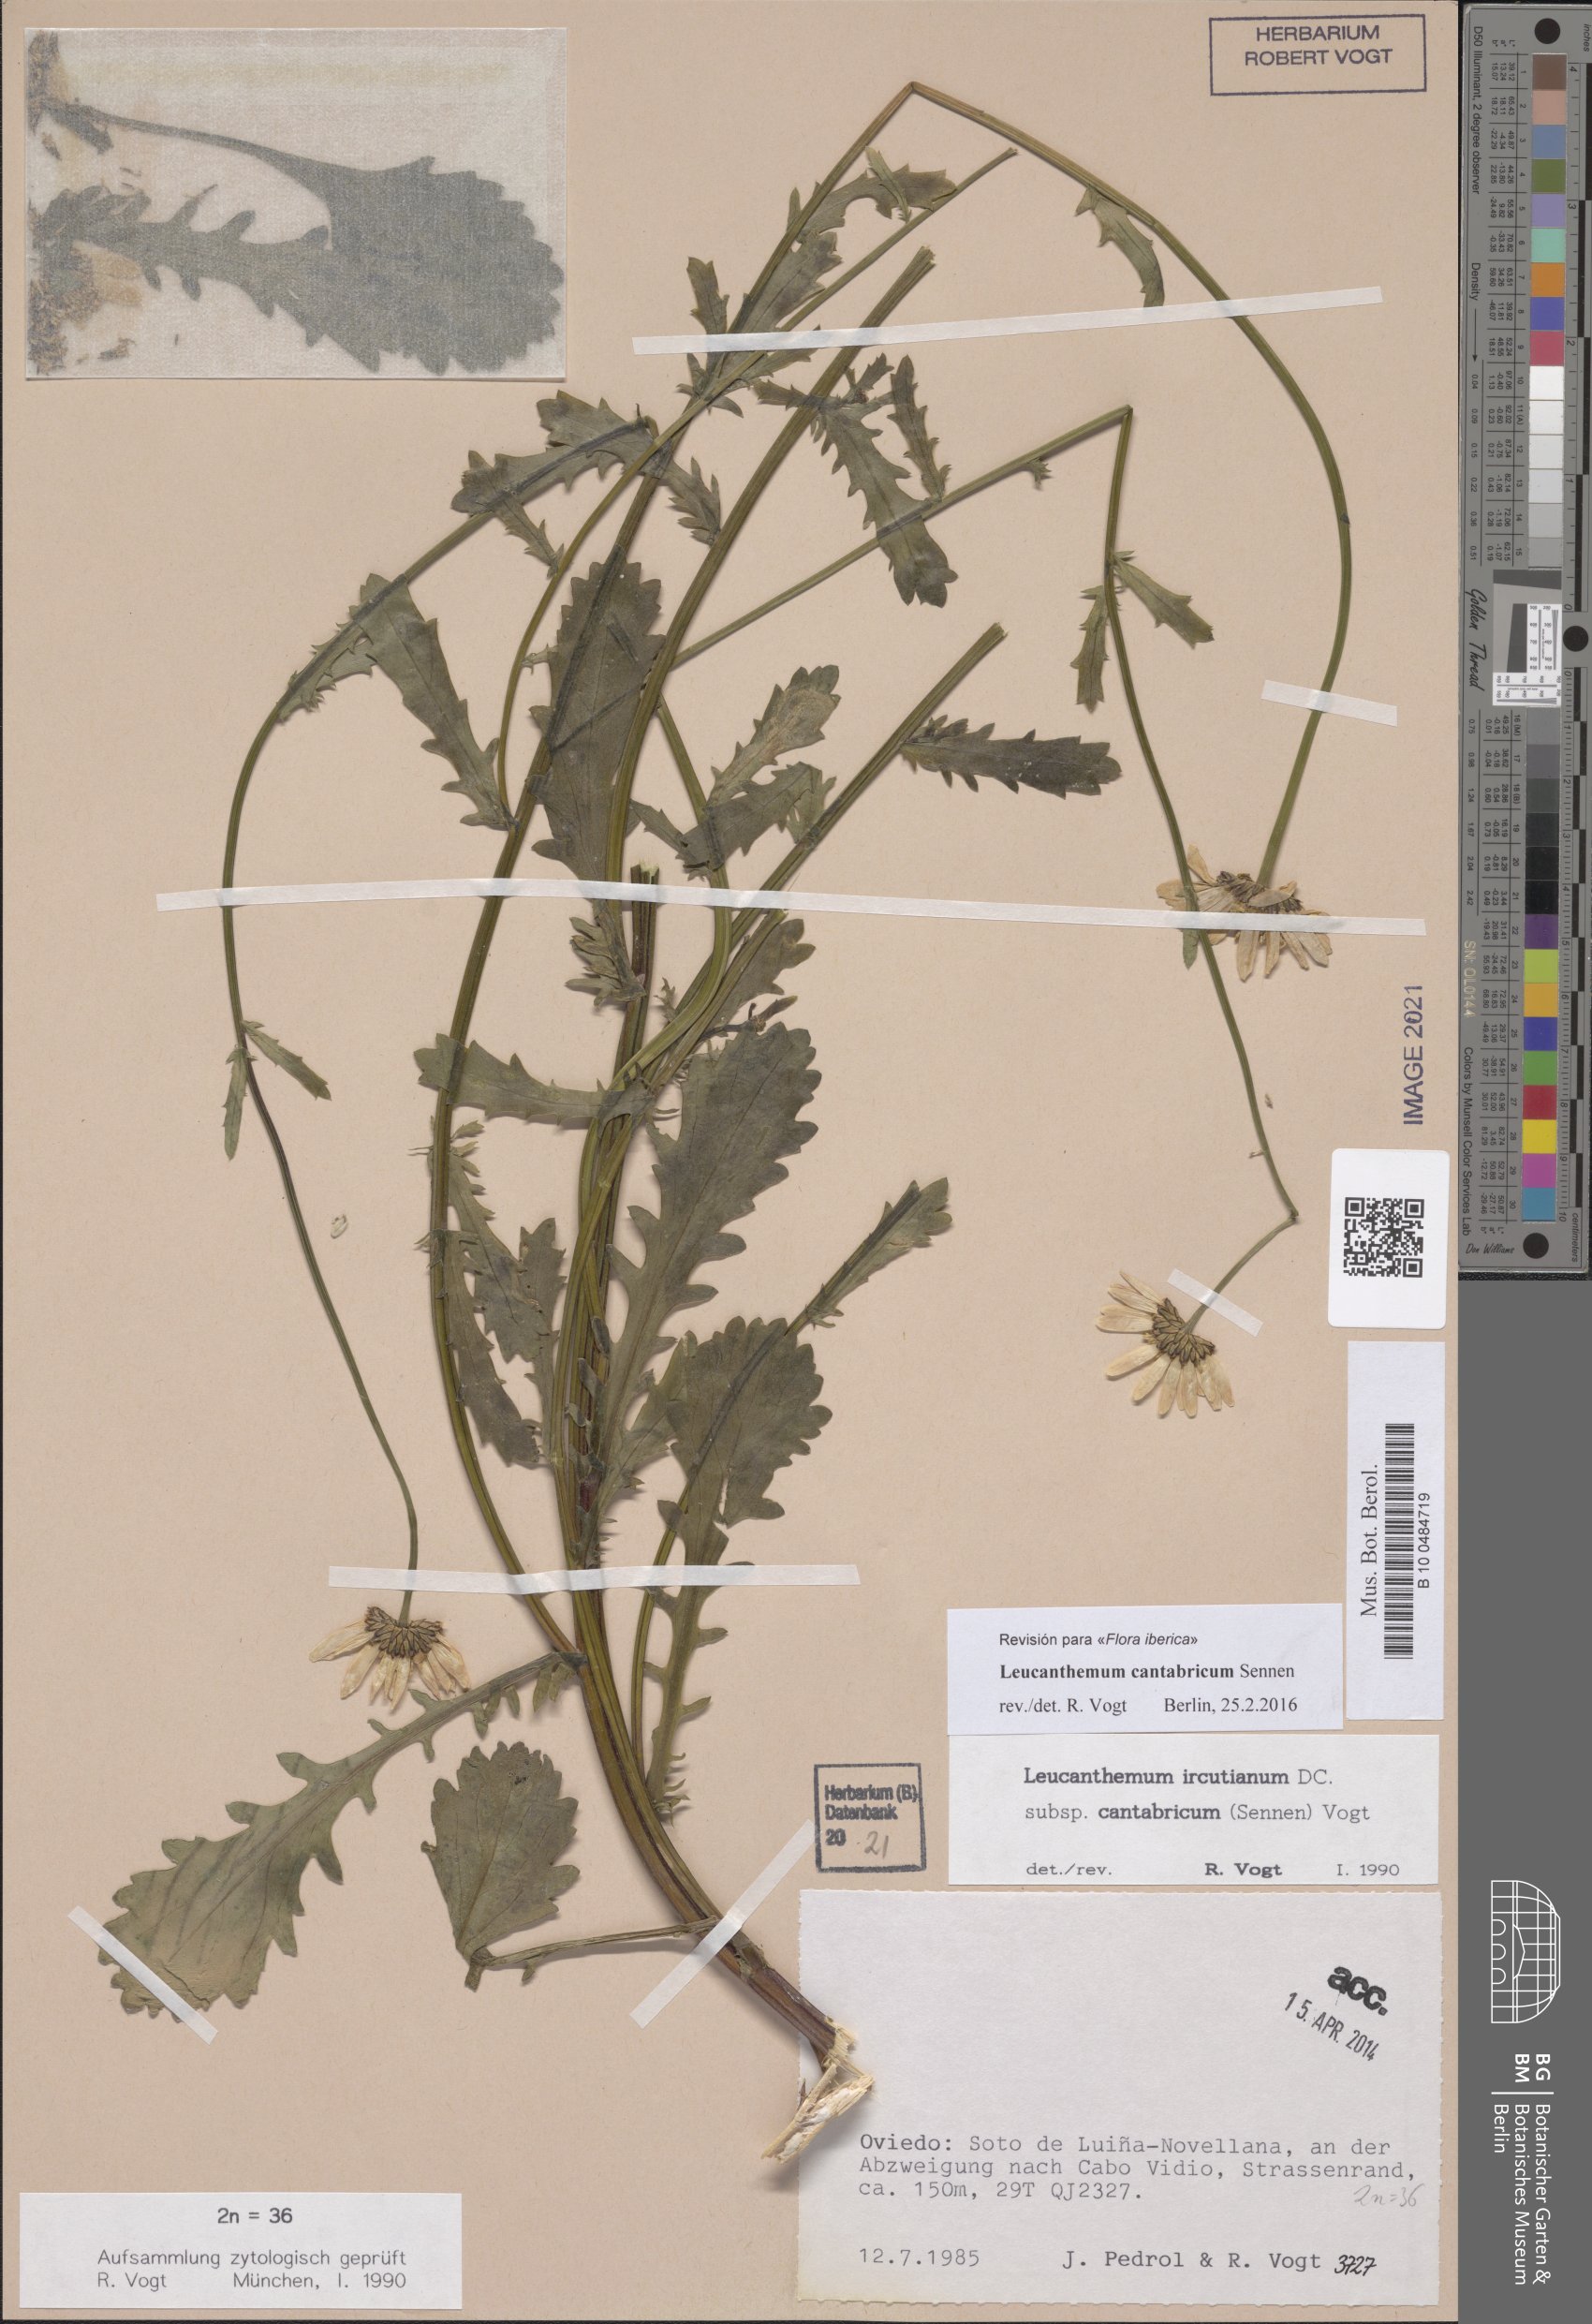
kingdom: Plantae
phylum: Tracheophyta
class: Magnoliopsida
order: Asterales
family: Asteraceae
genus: Leucanthemum
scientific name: Leucanthemum cantabricum
